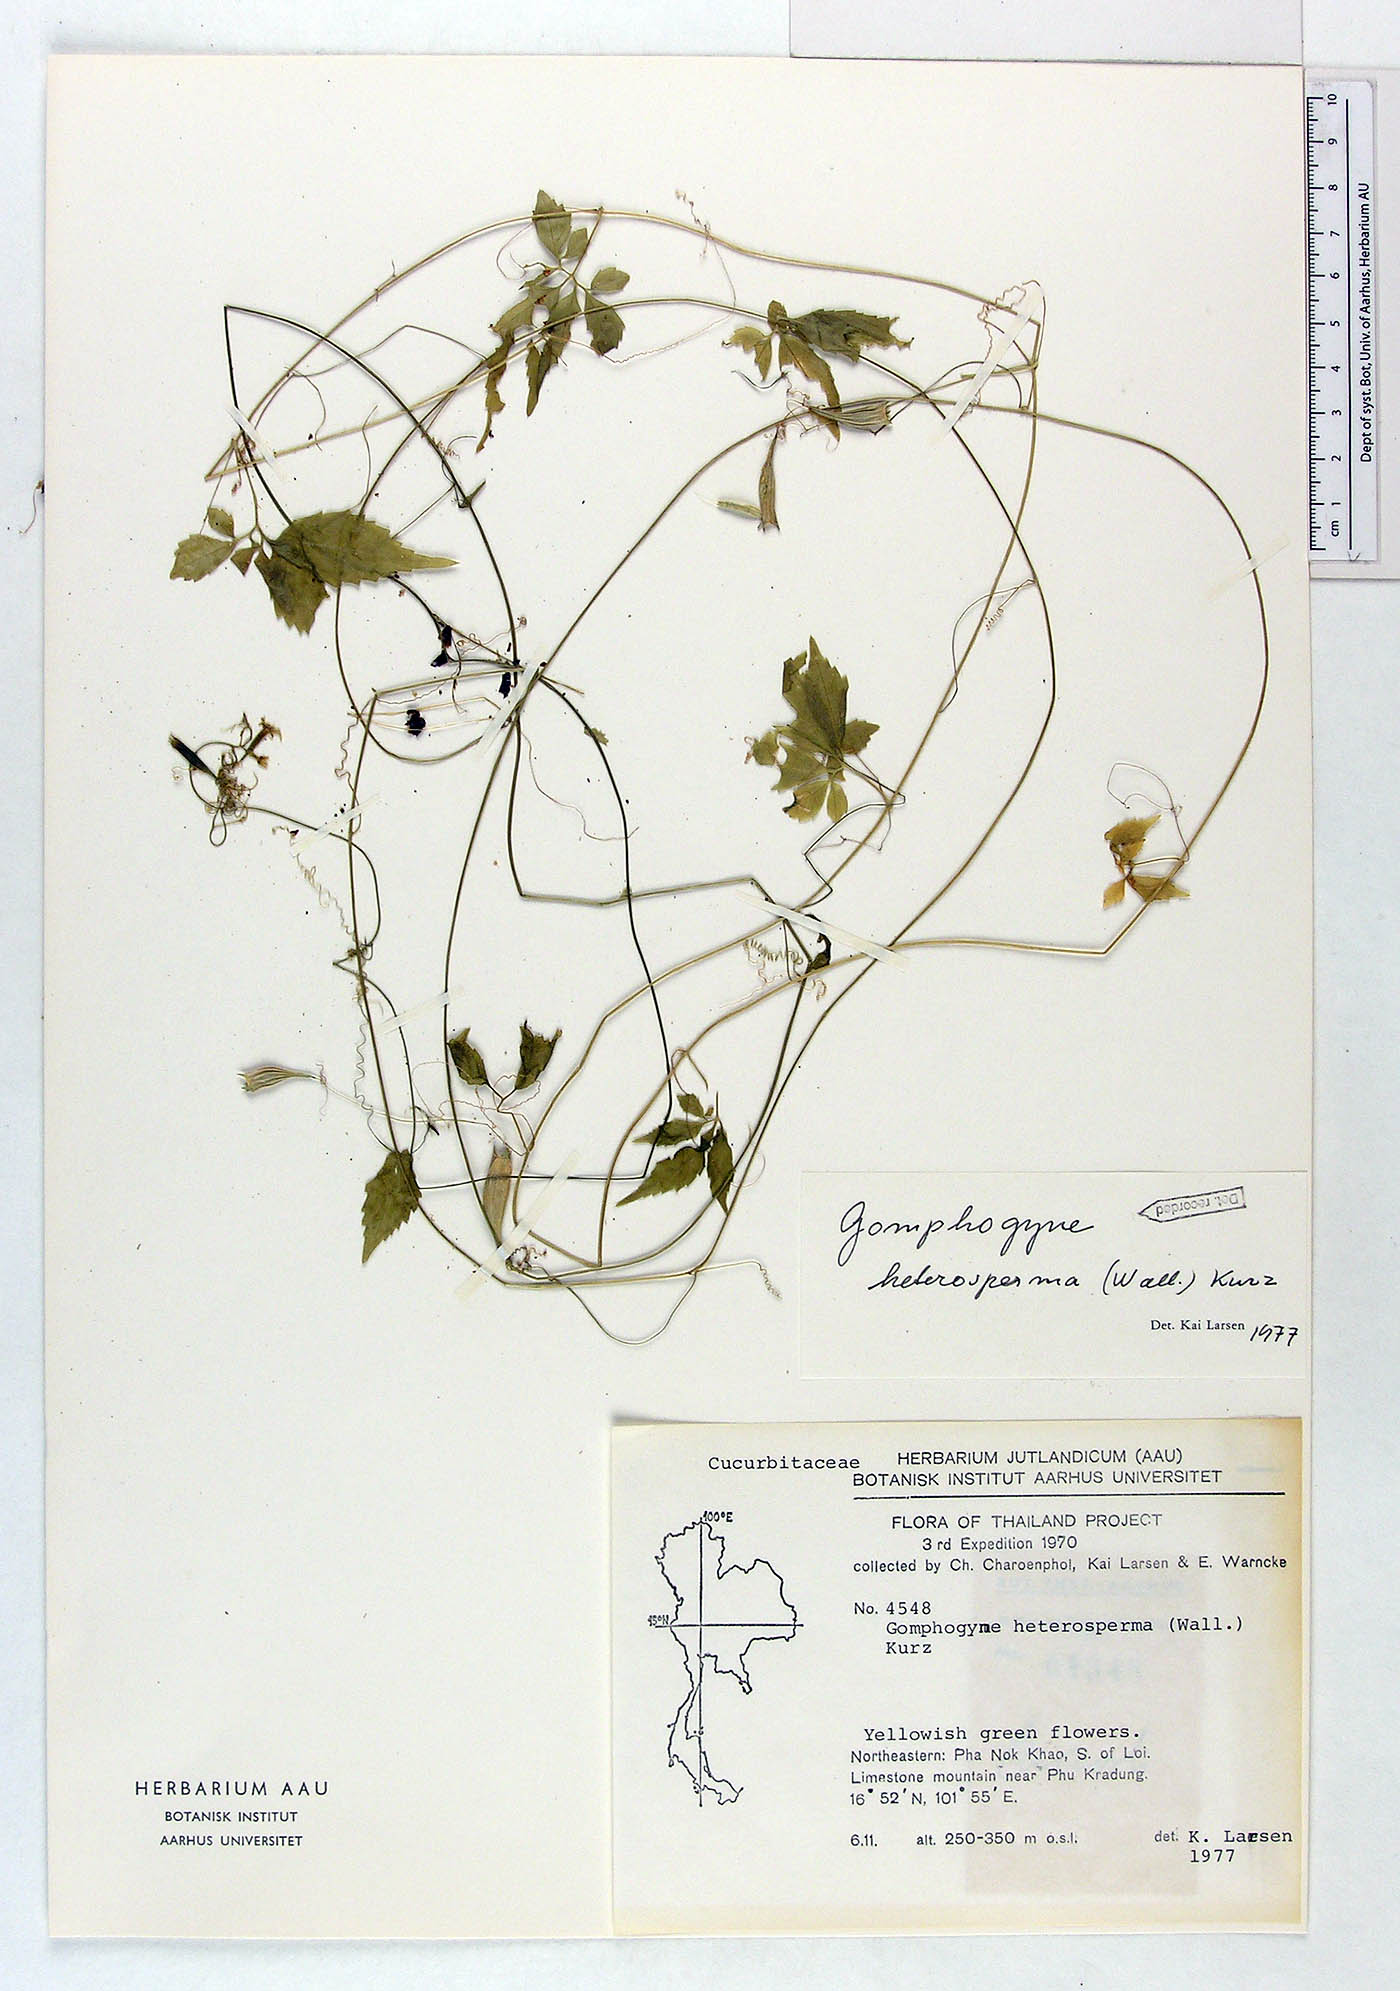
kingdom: Plantae
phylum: Tracheophyta
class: Magnoliopsida
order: Cucurbitales
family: Cucurbitaceae
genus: Gomphogyne
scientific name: Gomphogyne heterosperma
